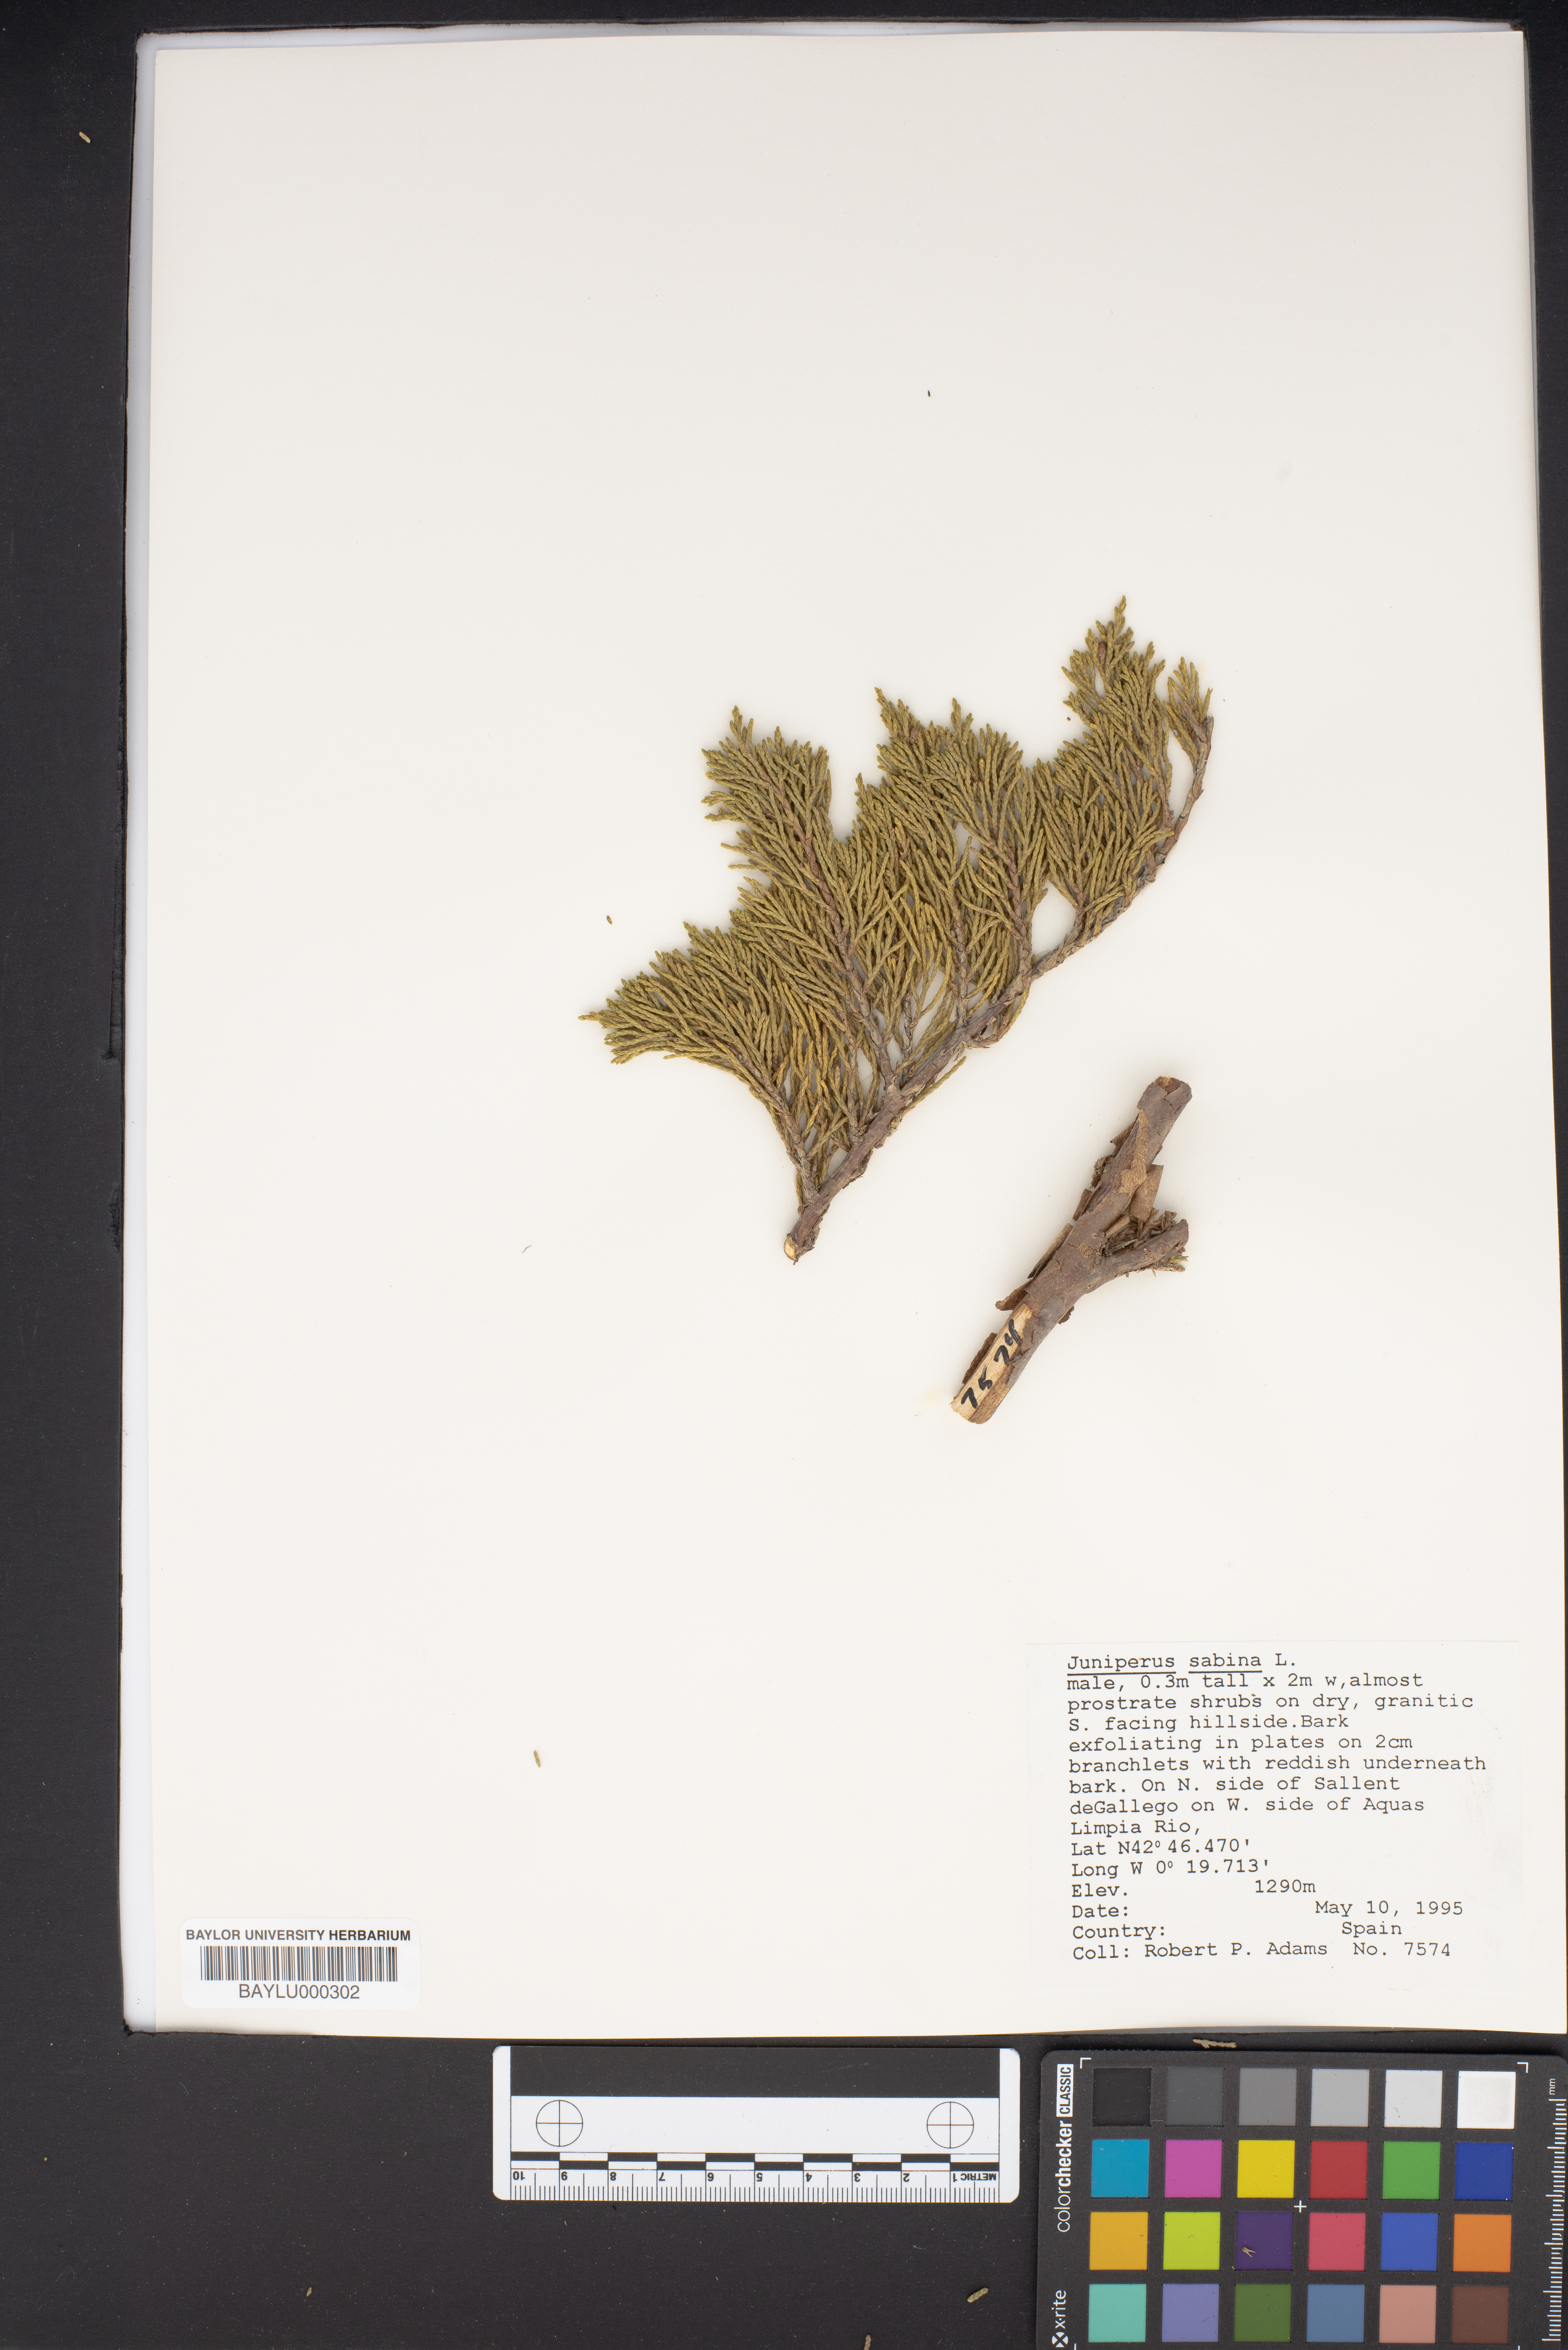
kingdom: Plantae
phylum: Tracheophyta
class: Pinopsida
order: Pinales
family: Cupressaceae
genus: Juniperus
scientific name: Juniperus sabina
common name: Savin
